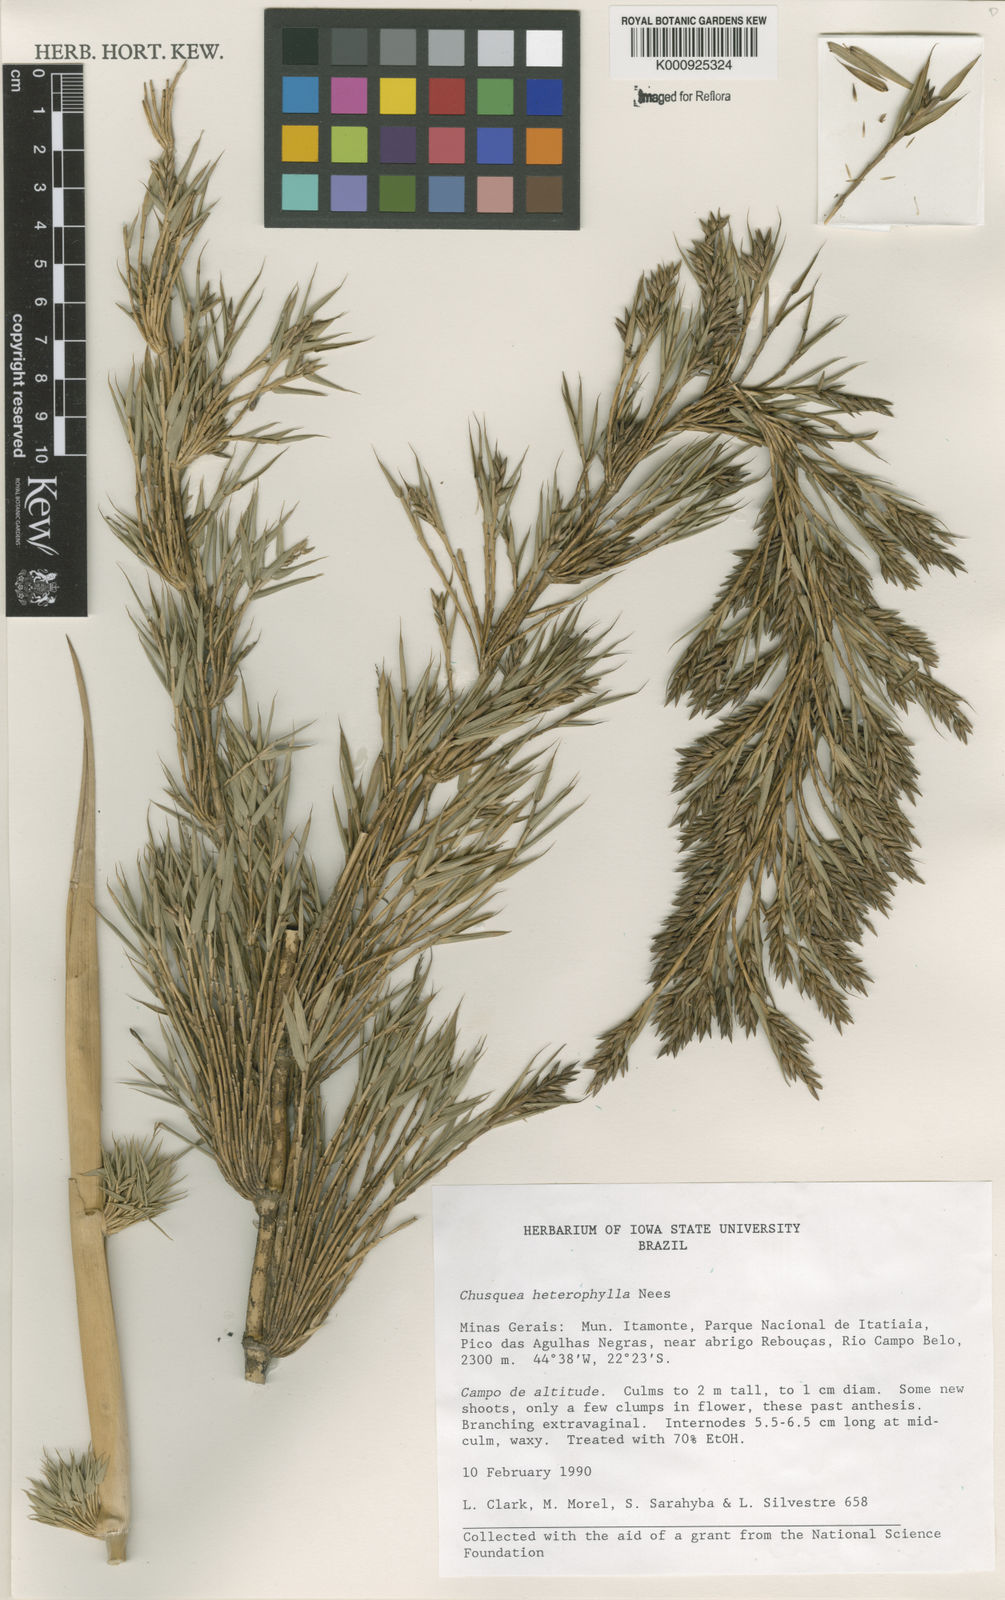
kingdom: Plantae
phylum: Tracheophyta
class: Liliopsida
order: Poales
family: Poaceae
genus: Chusquea
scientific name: Chusquea heterophylla
